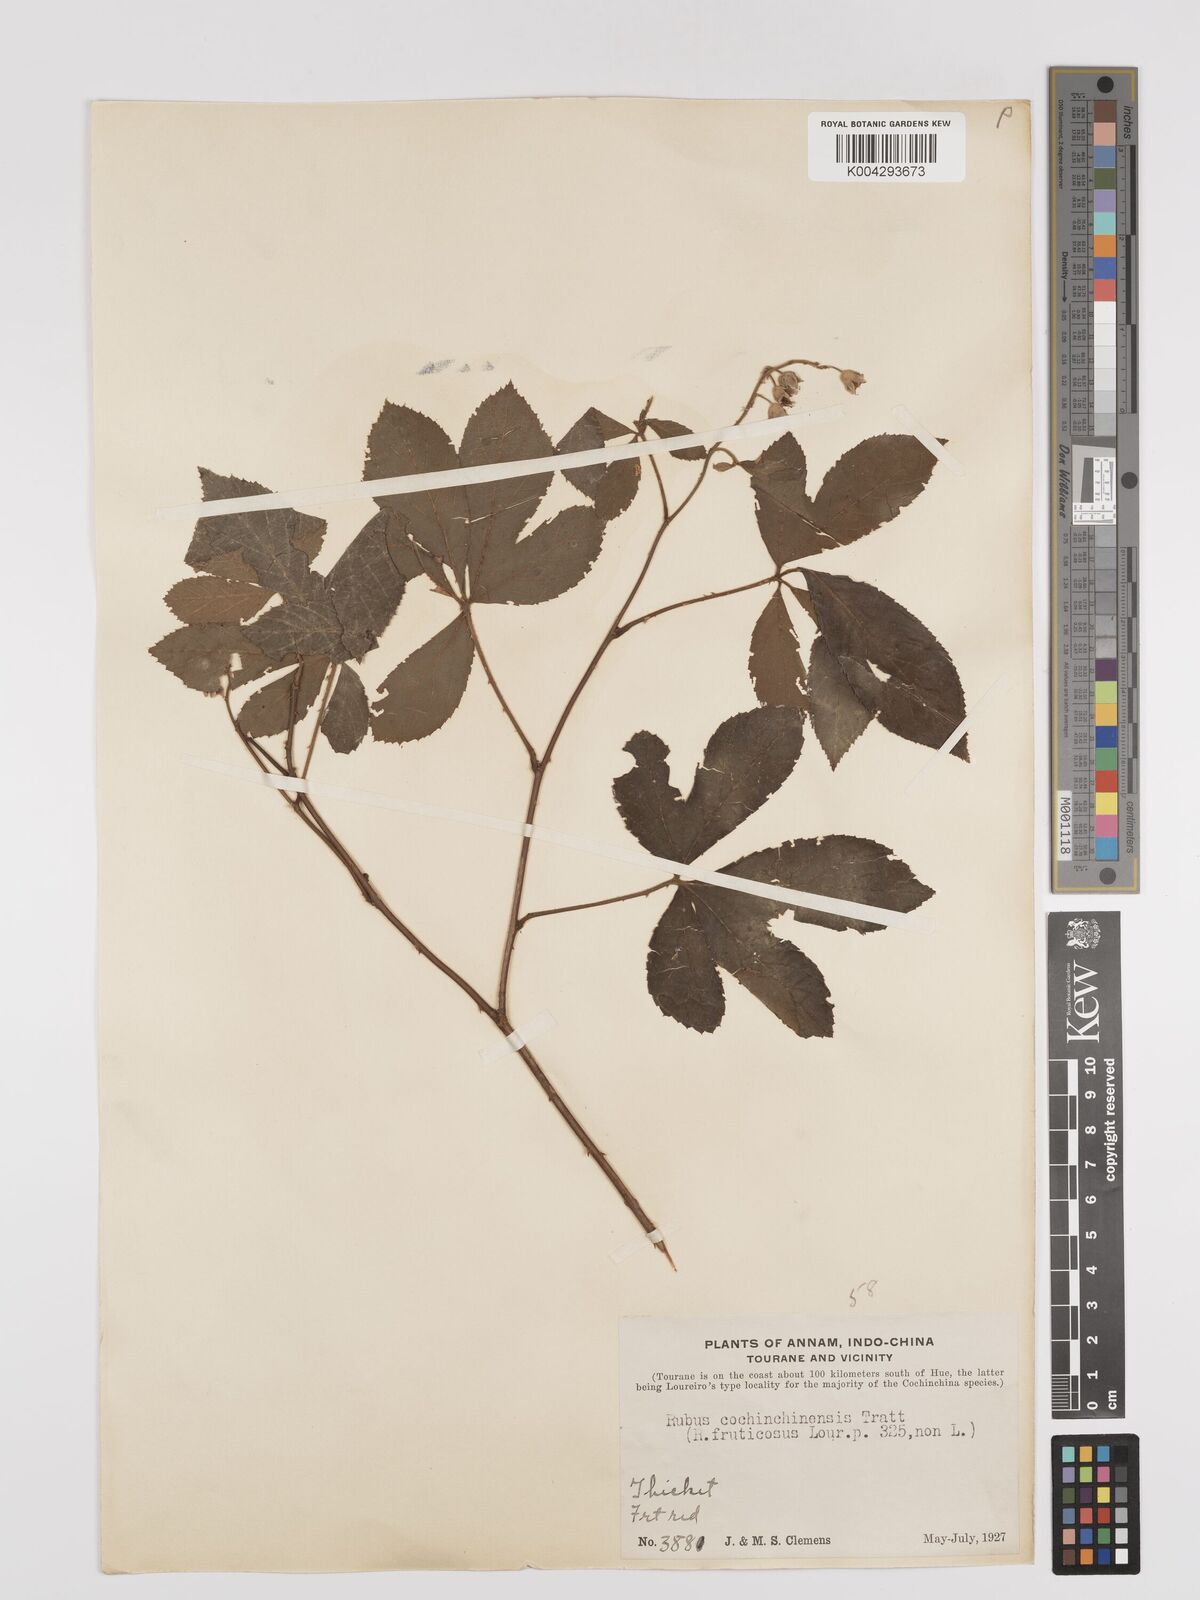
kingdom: Plantae
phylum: Tracheophyta
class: Magnoliopsida
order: Rosales
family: Rosaceae
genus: Rubus
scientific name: Rubus cochinchinensis
